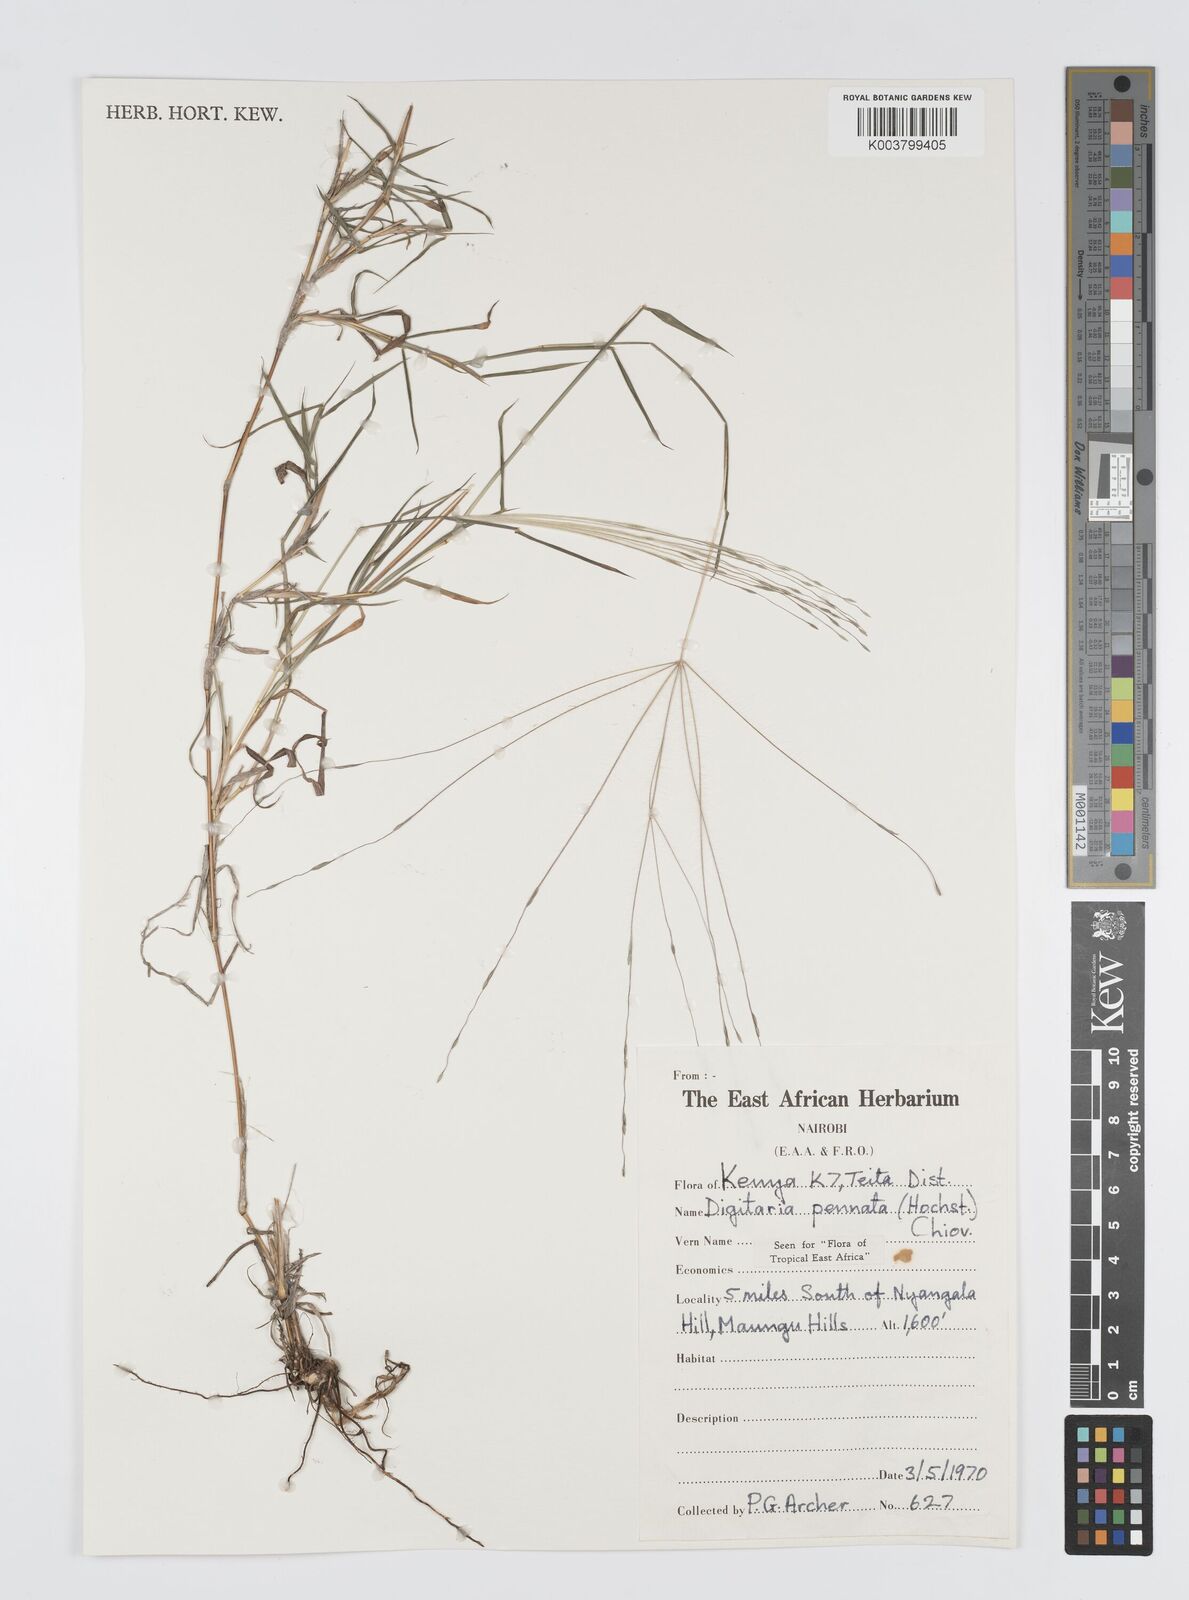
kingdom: Plantae
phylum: Tracheophyta
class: Liliopsida
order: Poales
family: Poaceae
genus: Digitaria
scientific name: Digitaria pennata
